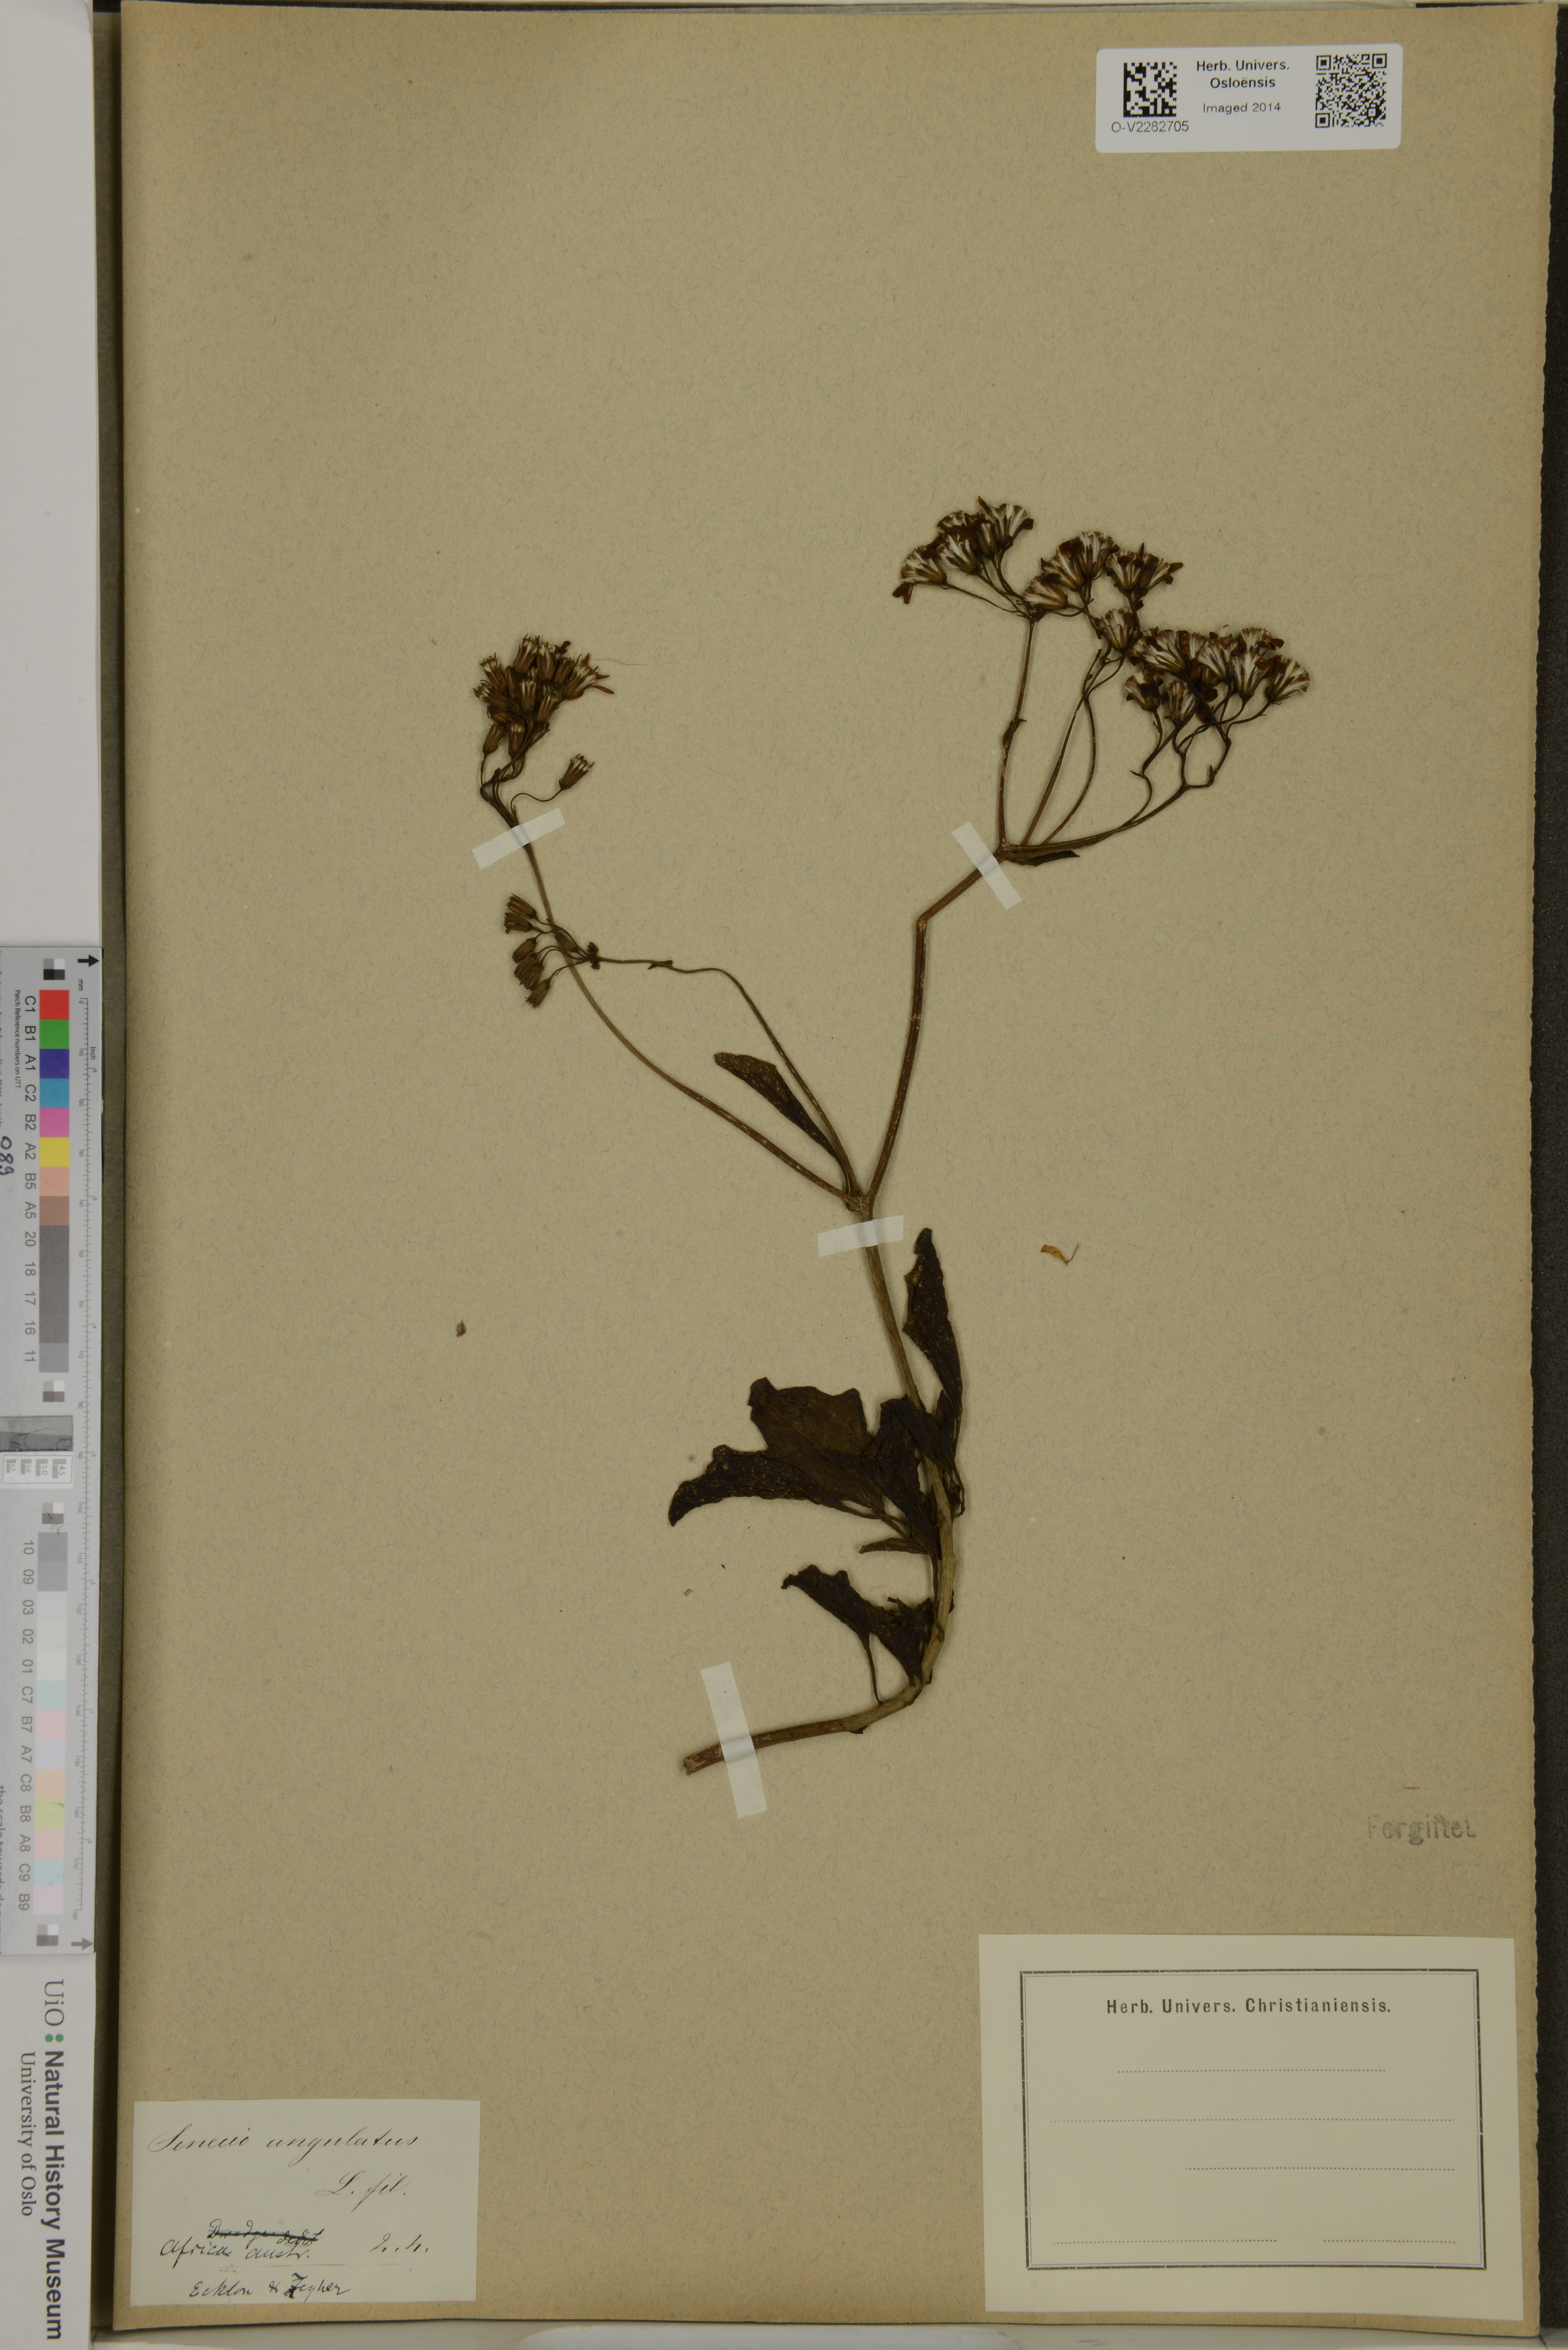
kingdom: Plantae
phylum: Tracheophyta
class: Magnoliopsida
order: Asterales
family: Asteraceae
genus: Senecio
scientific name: Senecio angulatus
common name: Climbing groundsel
